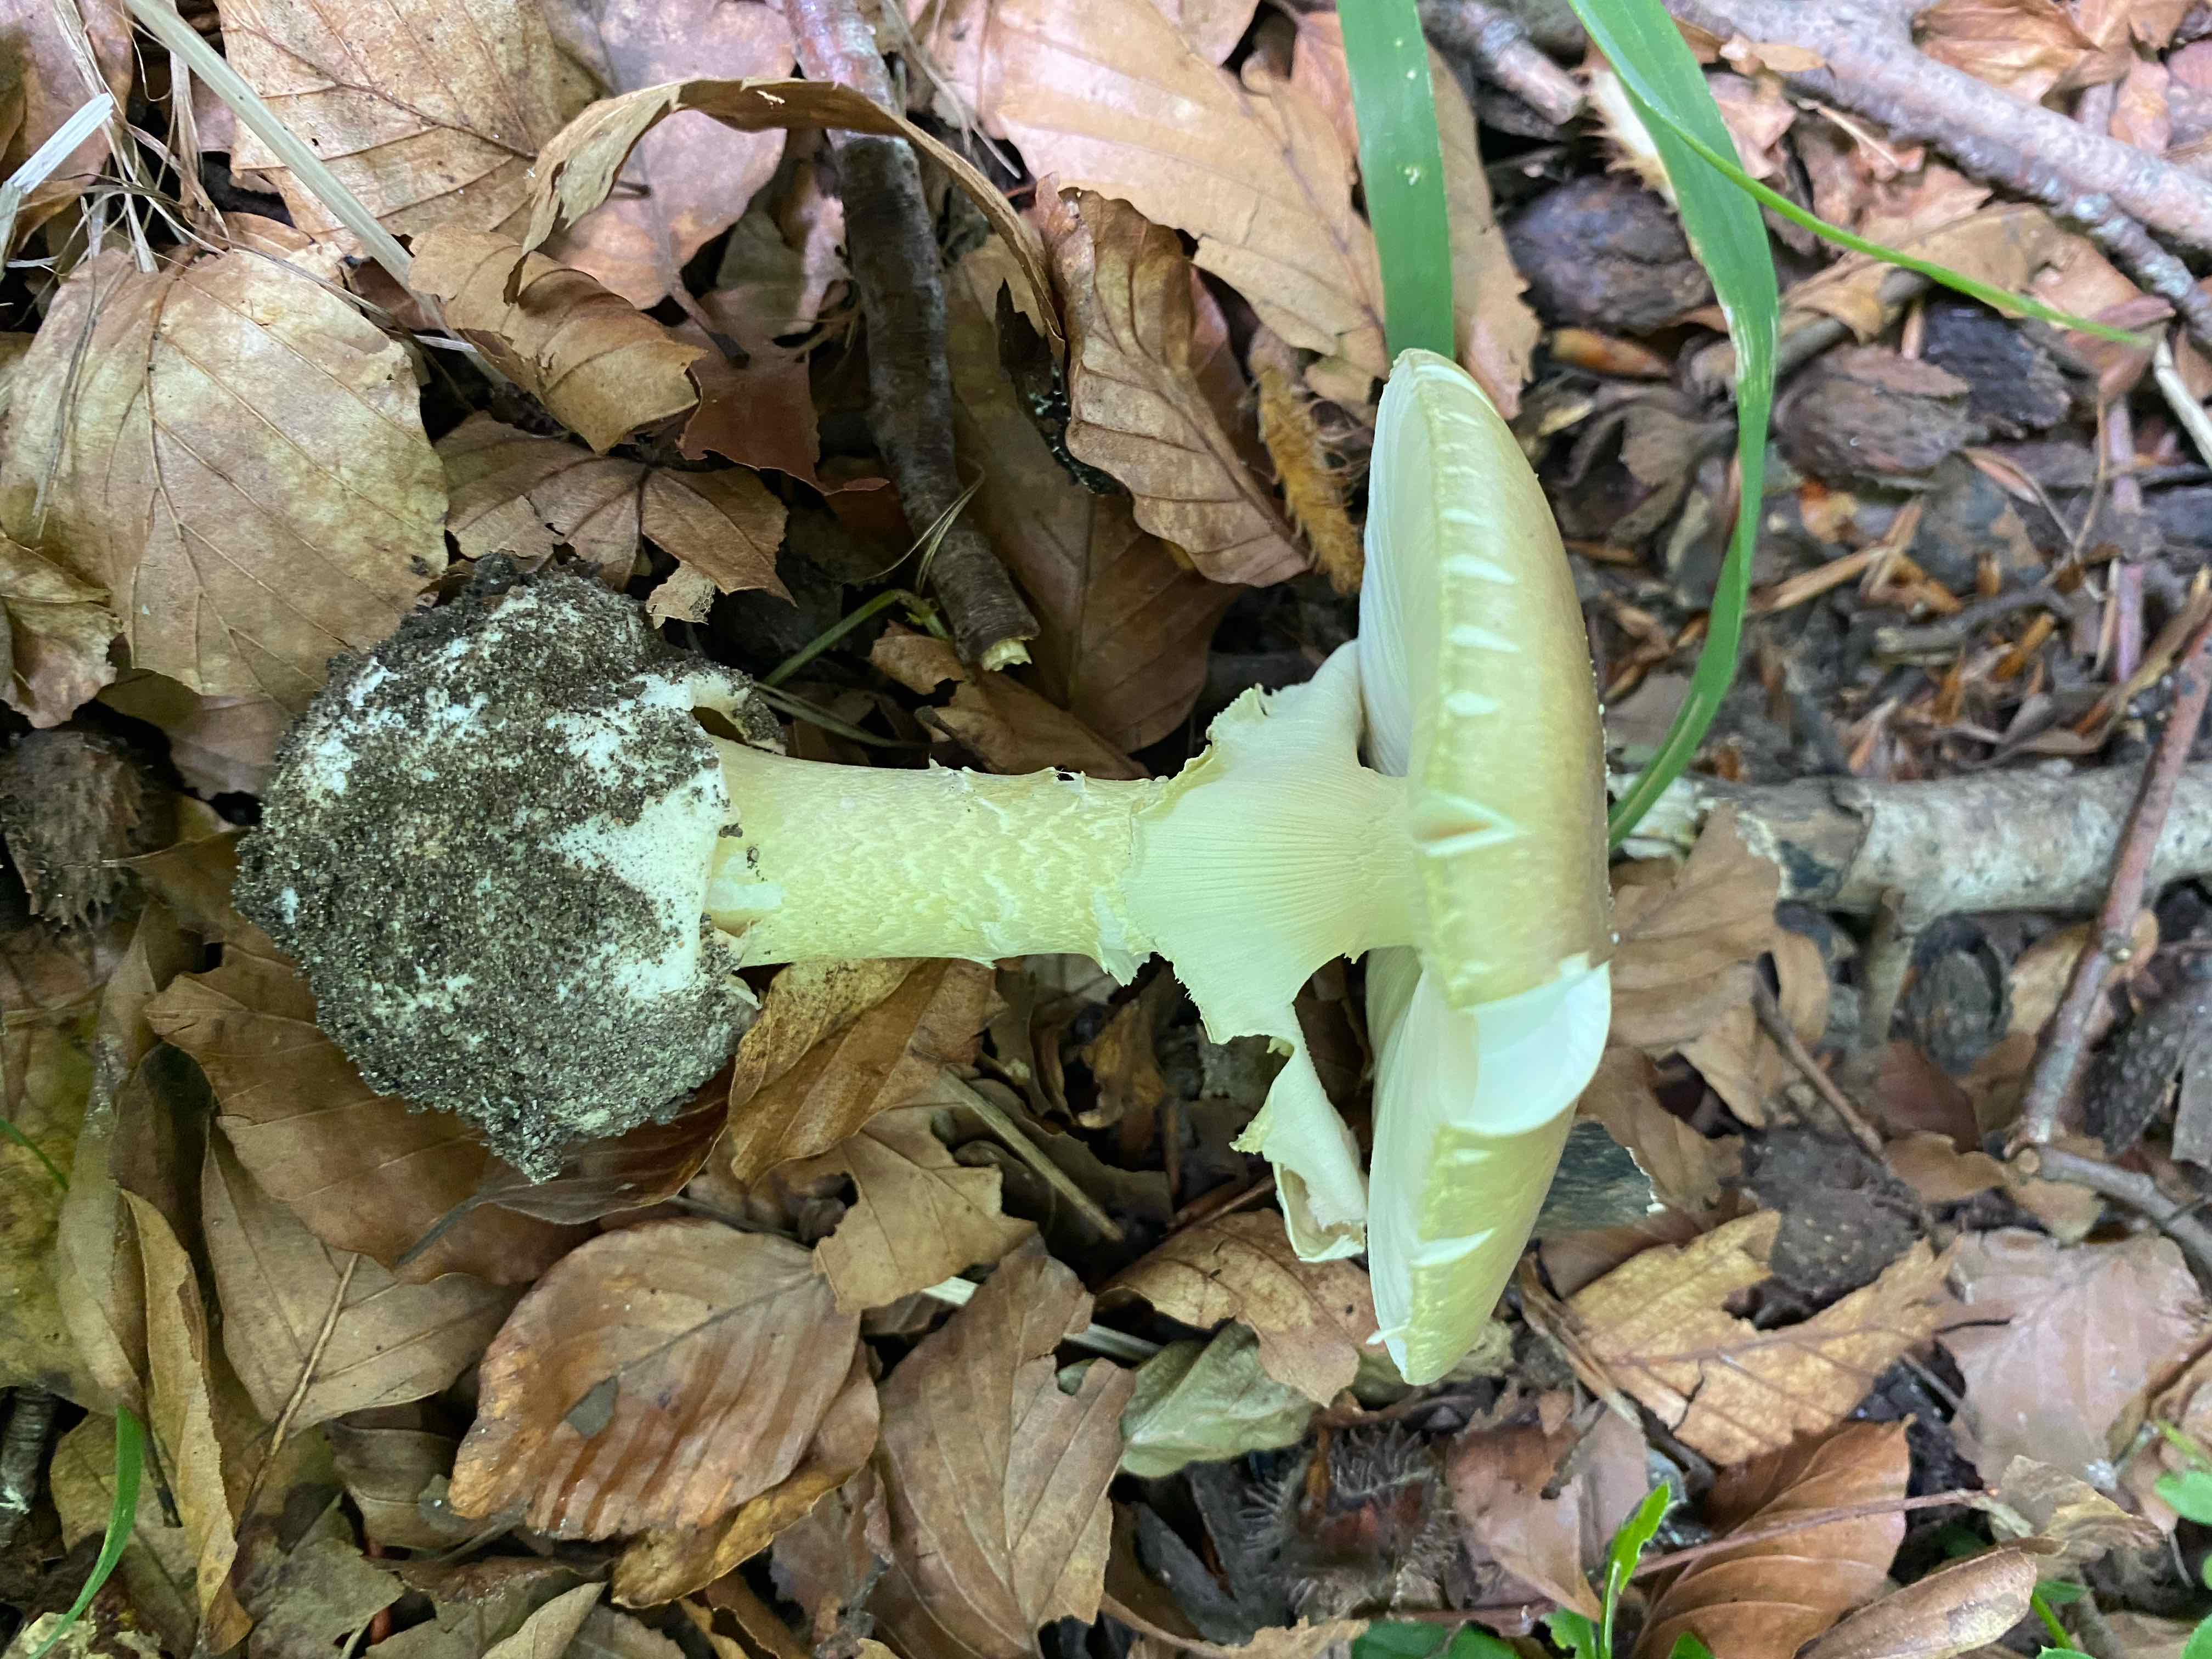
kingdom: Fungi
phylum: Basidiomycota
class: Agaricomycetes
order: Agaricales
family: Amanitaceae
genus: Amanita
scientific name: Amanita phalloides
